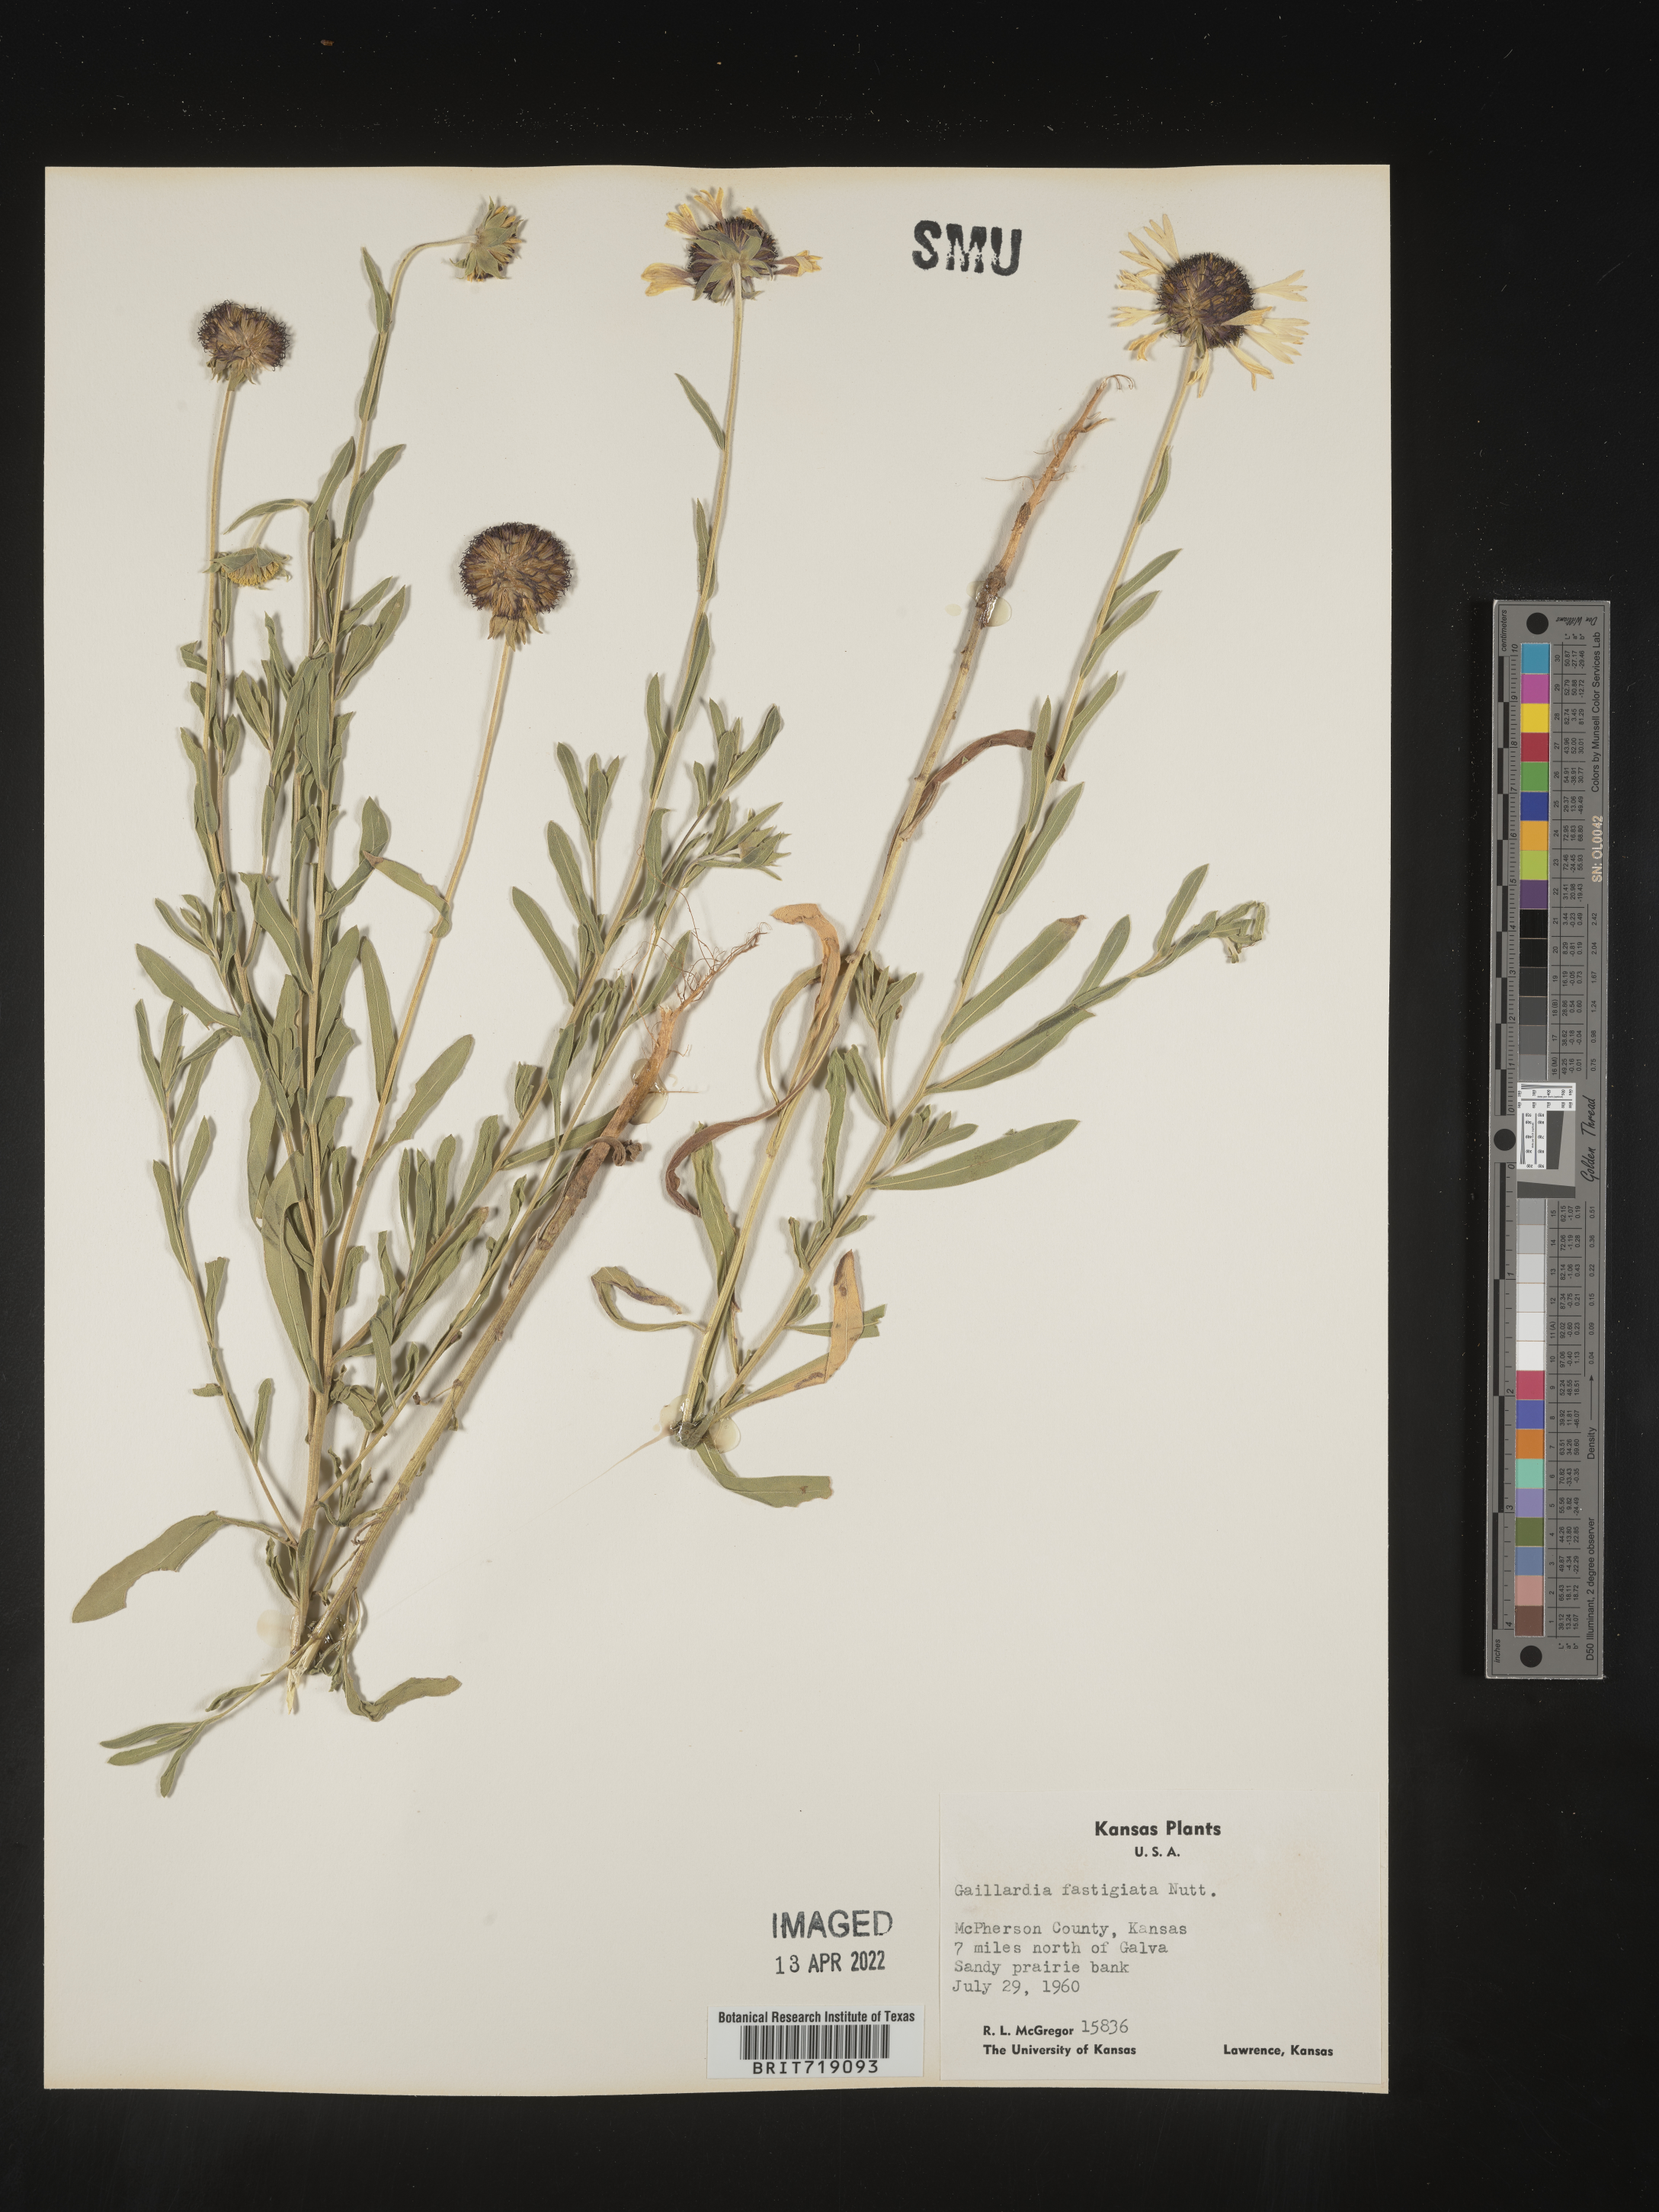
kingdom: Plantae
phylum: Tracheophyta
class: Magnoliopsida
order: Asterales
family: Asteraceae
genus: Gaillardia
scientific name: Gaillardia aestivalis
